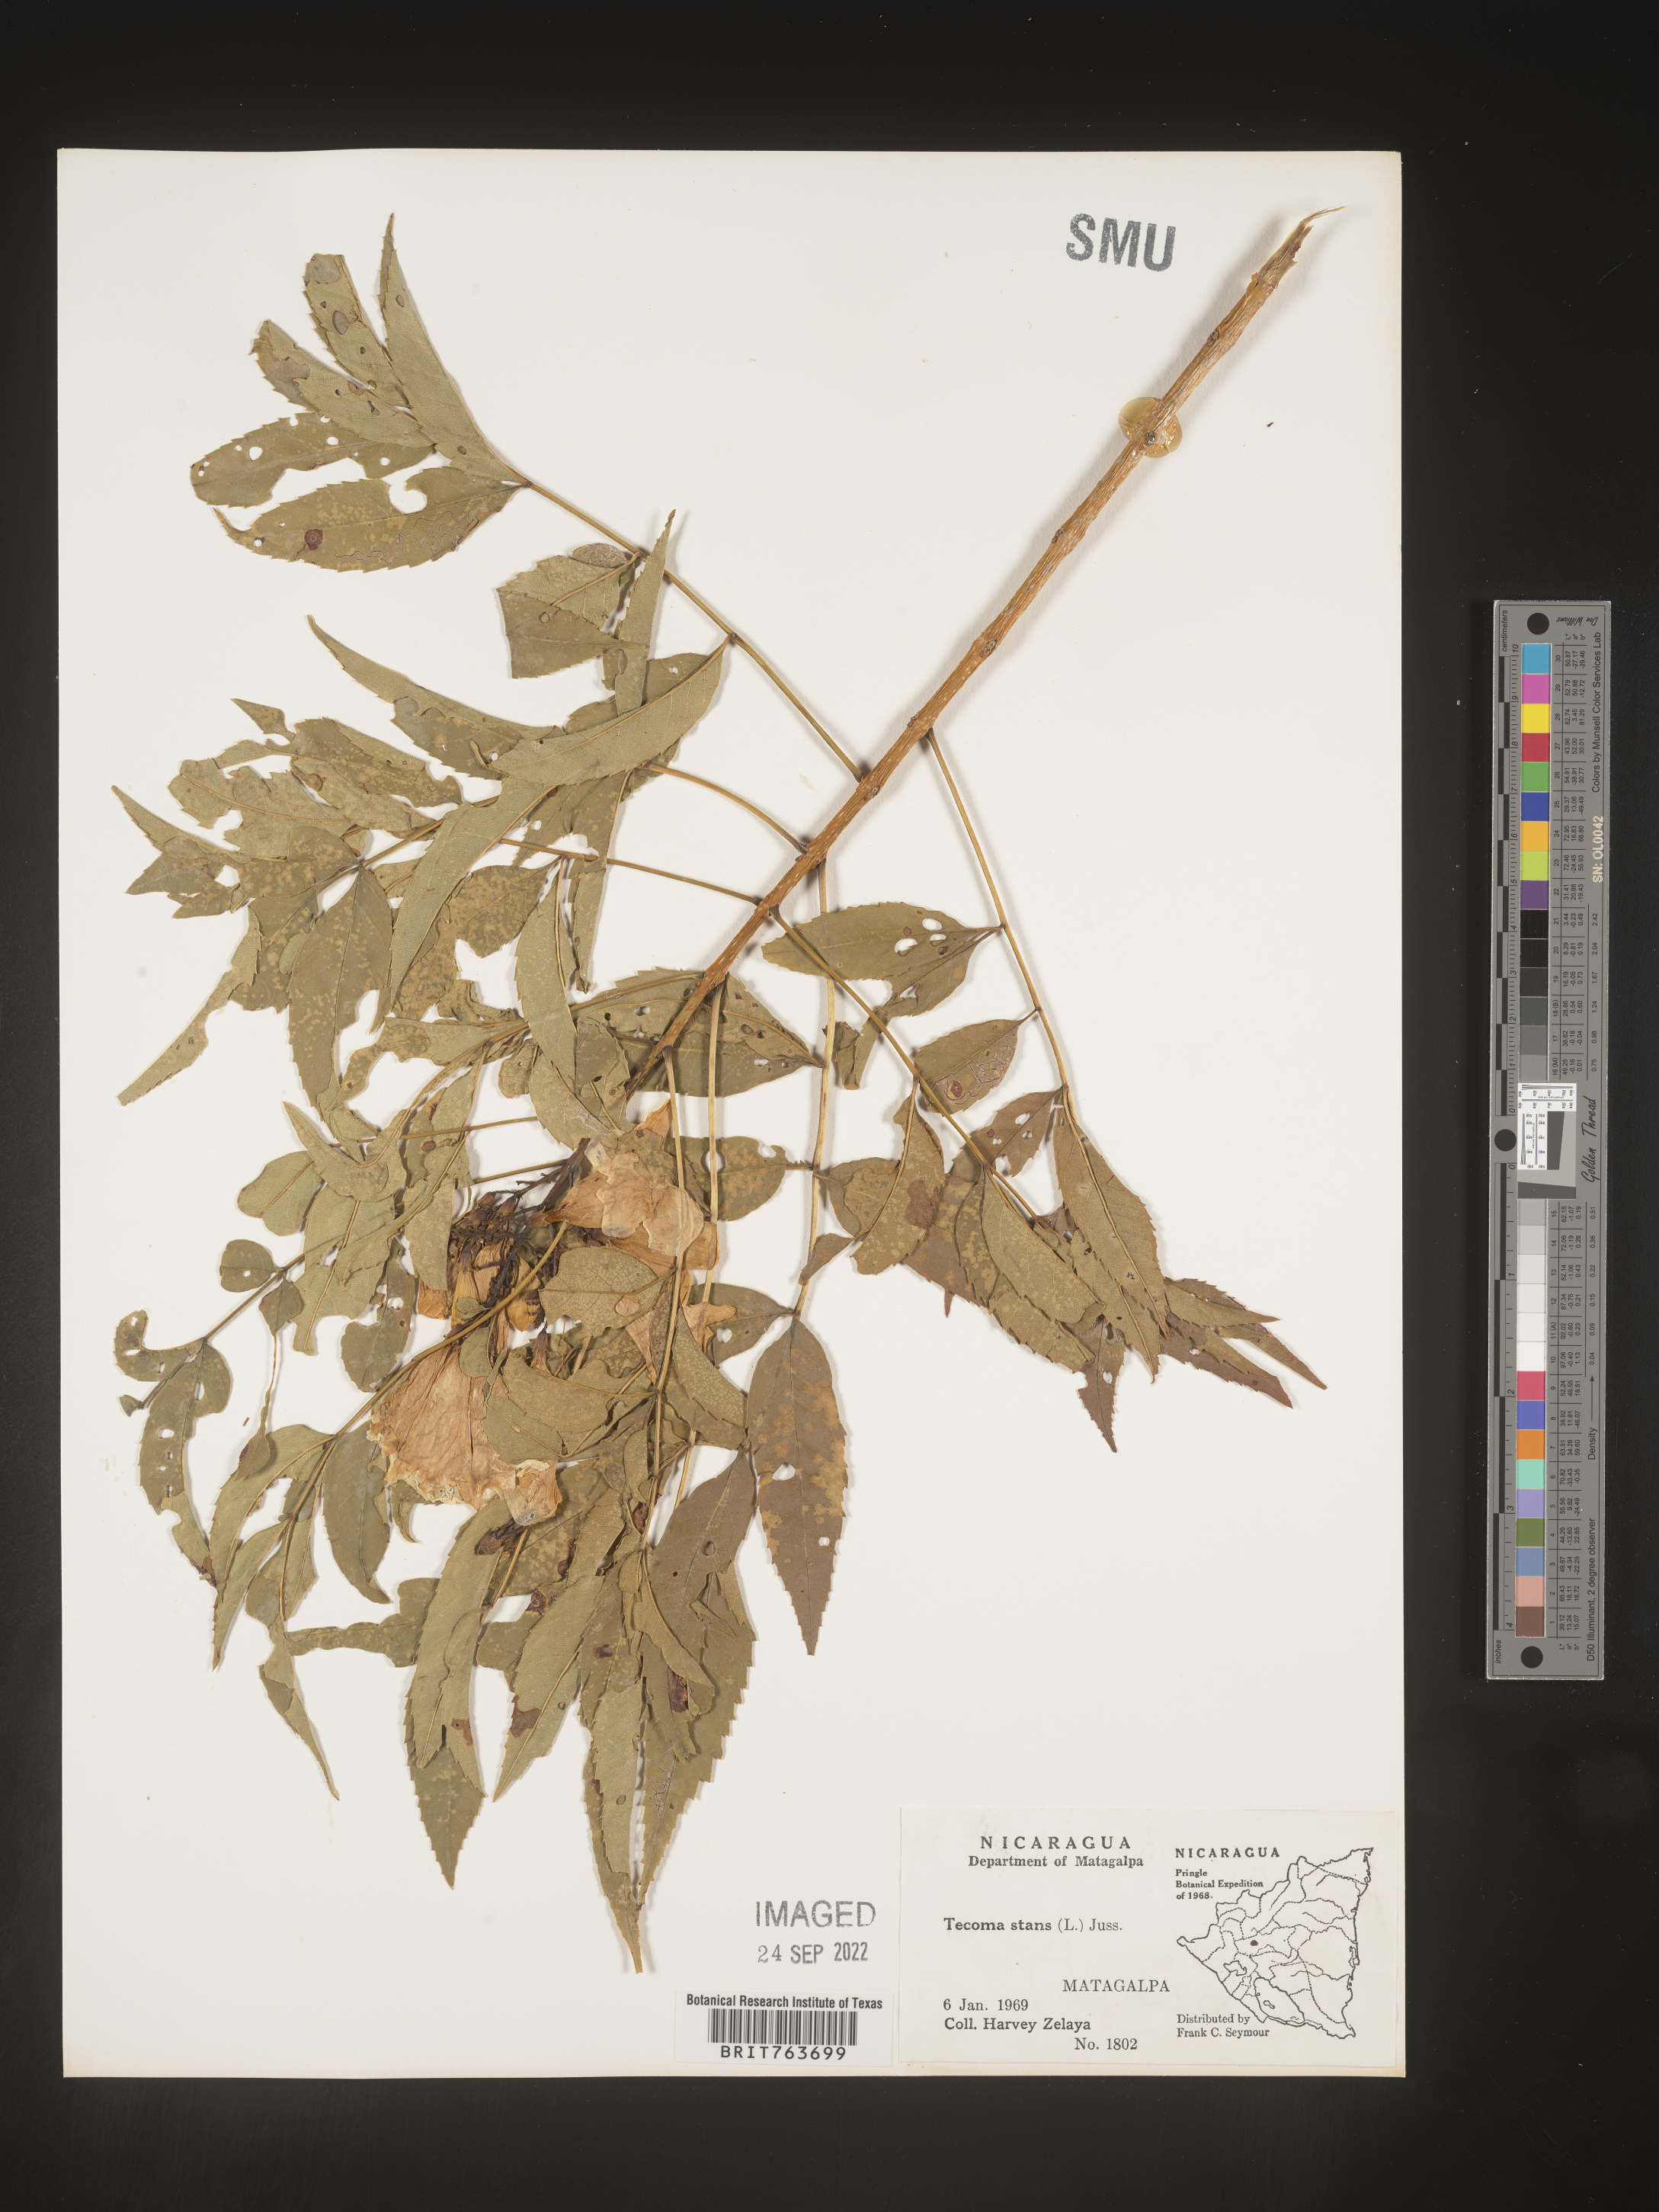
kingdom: Plantae
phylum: Tracheophyta
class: Magnoliopsida
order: Lamiales
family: Bignoniaceae
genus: Tecoma
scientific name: Tecoma
